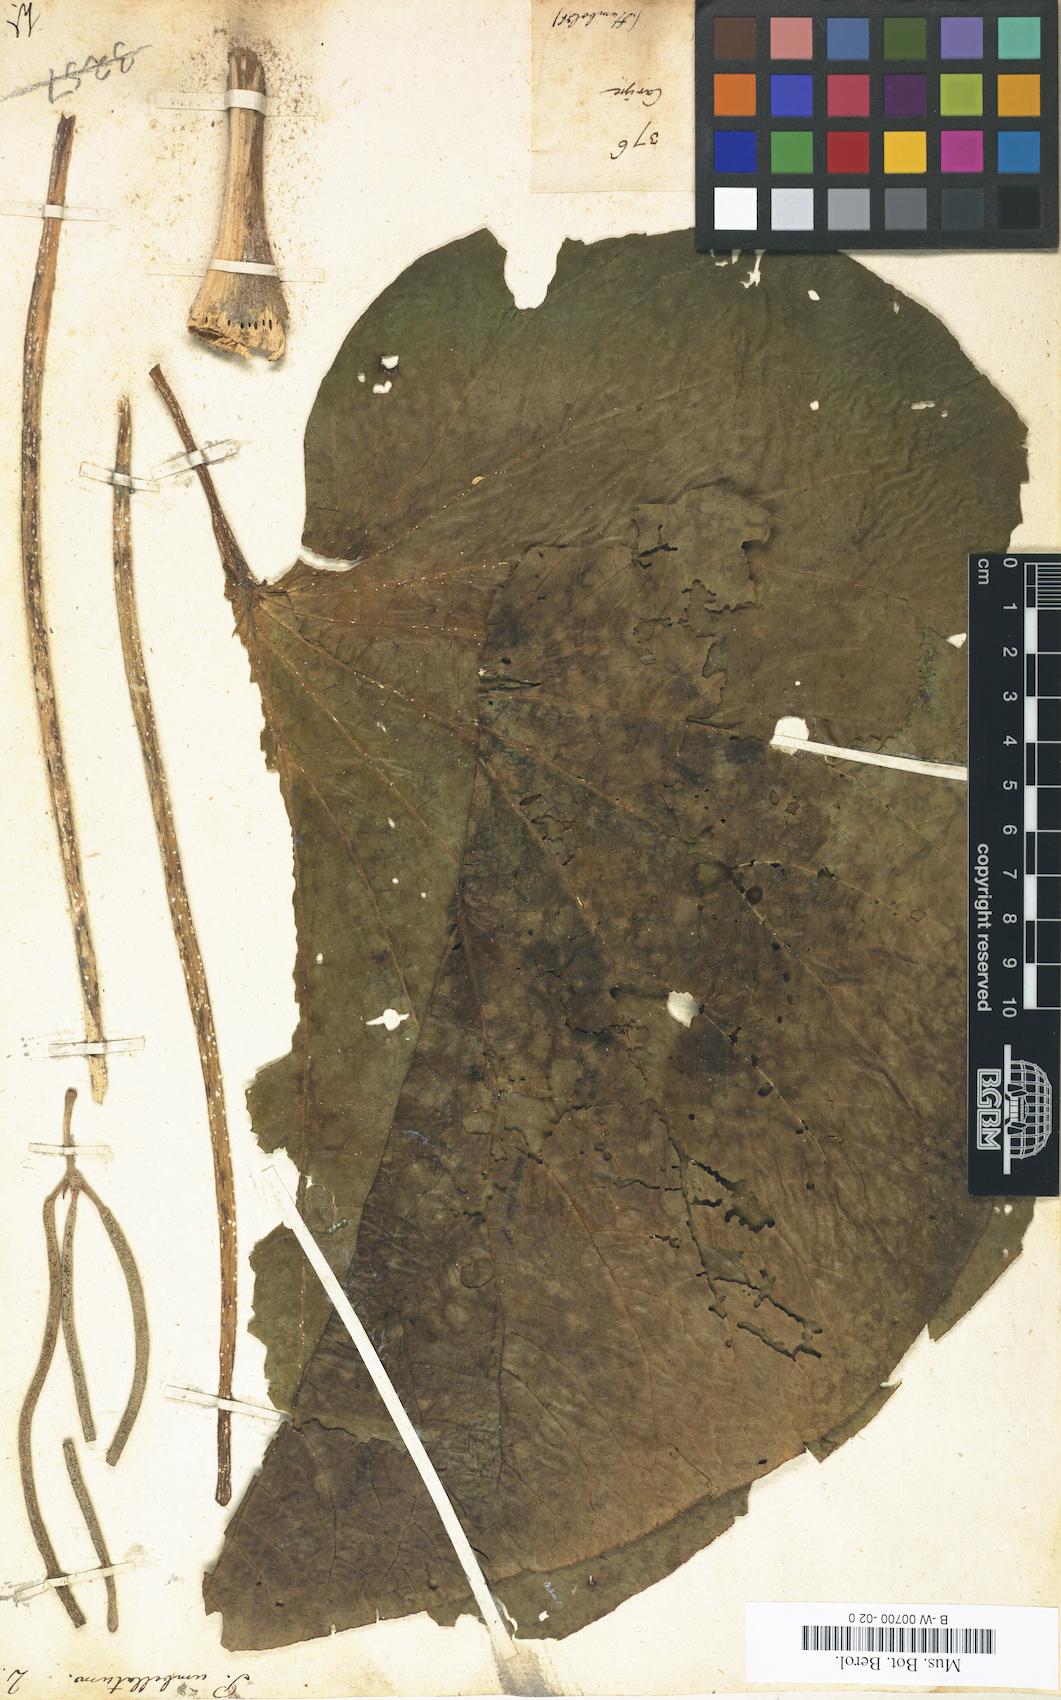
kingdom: Plantae
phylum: Tracheophyta
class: Magnoliopsida
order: Piperales
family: Piperaceae
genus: Piper
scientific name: Piper umbellatum
